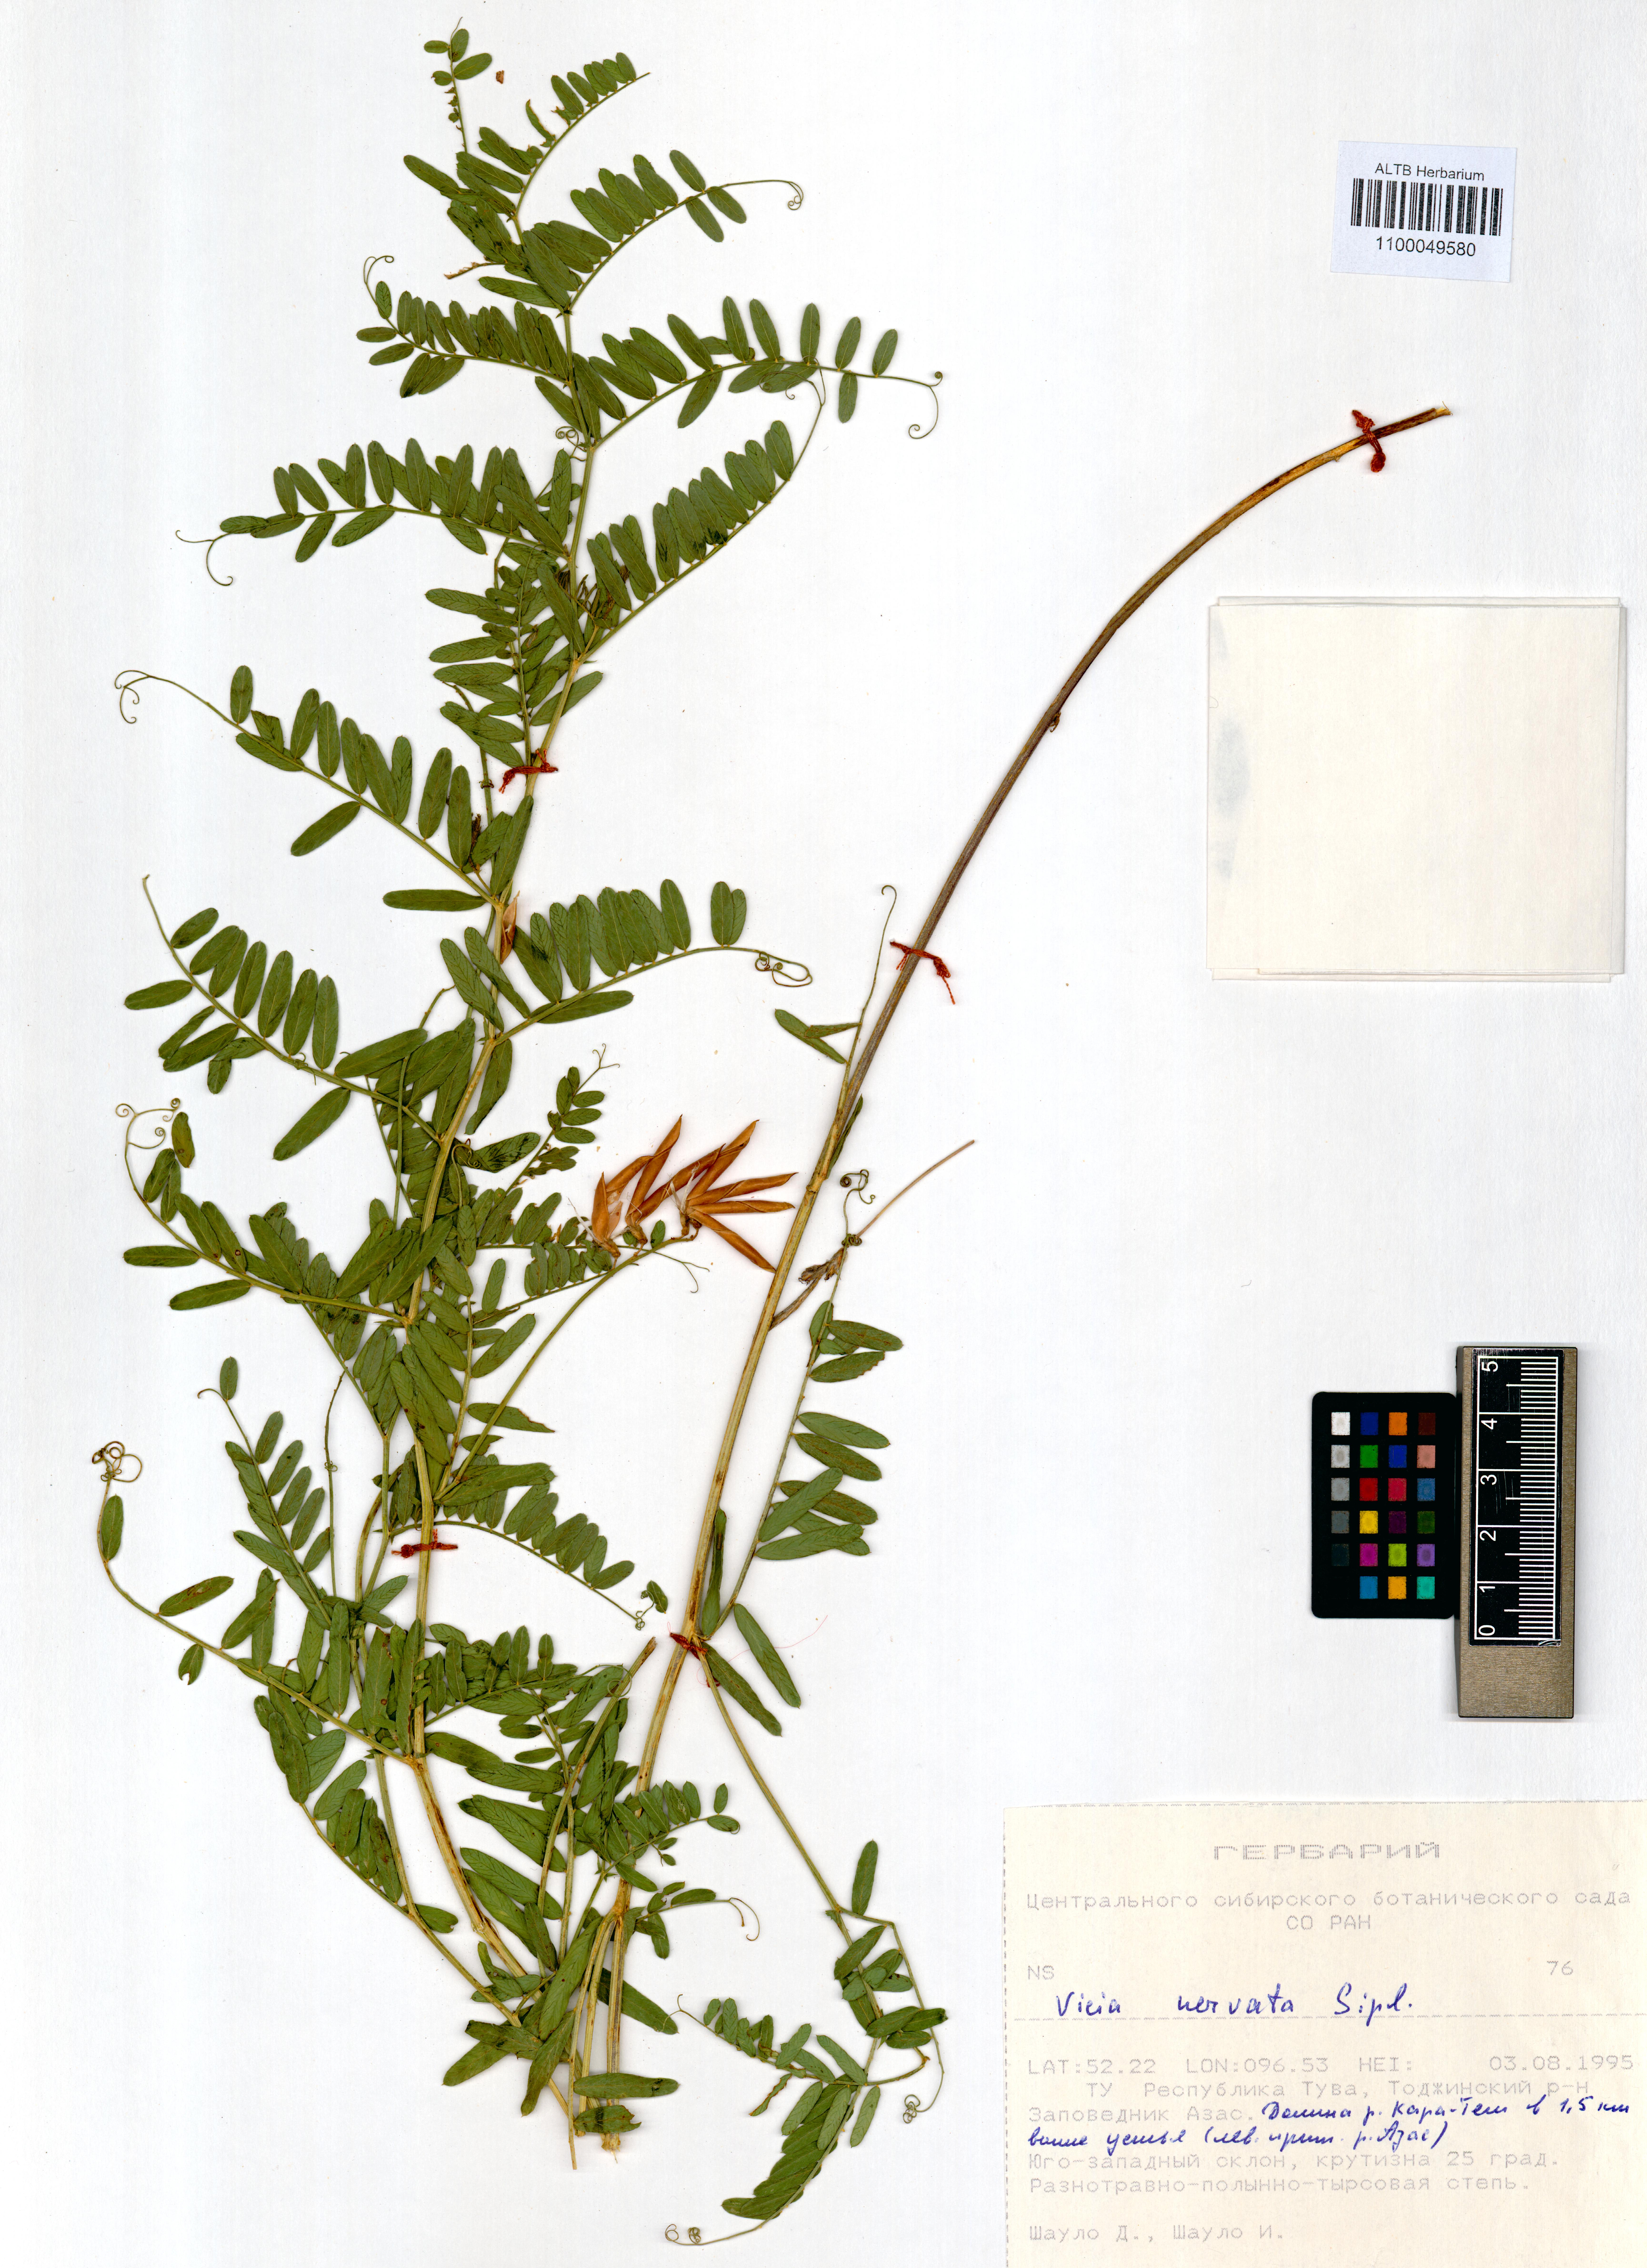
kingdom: Plantae
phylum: Tracheophyta
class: Magnoliopsida
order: Fabales
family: Fabaceae
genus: Vicia
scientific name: Vicia multicaulis
